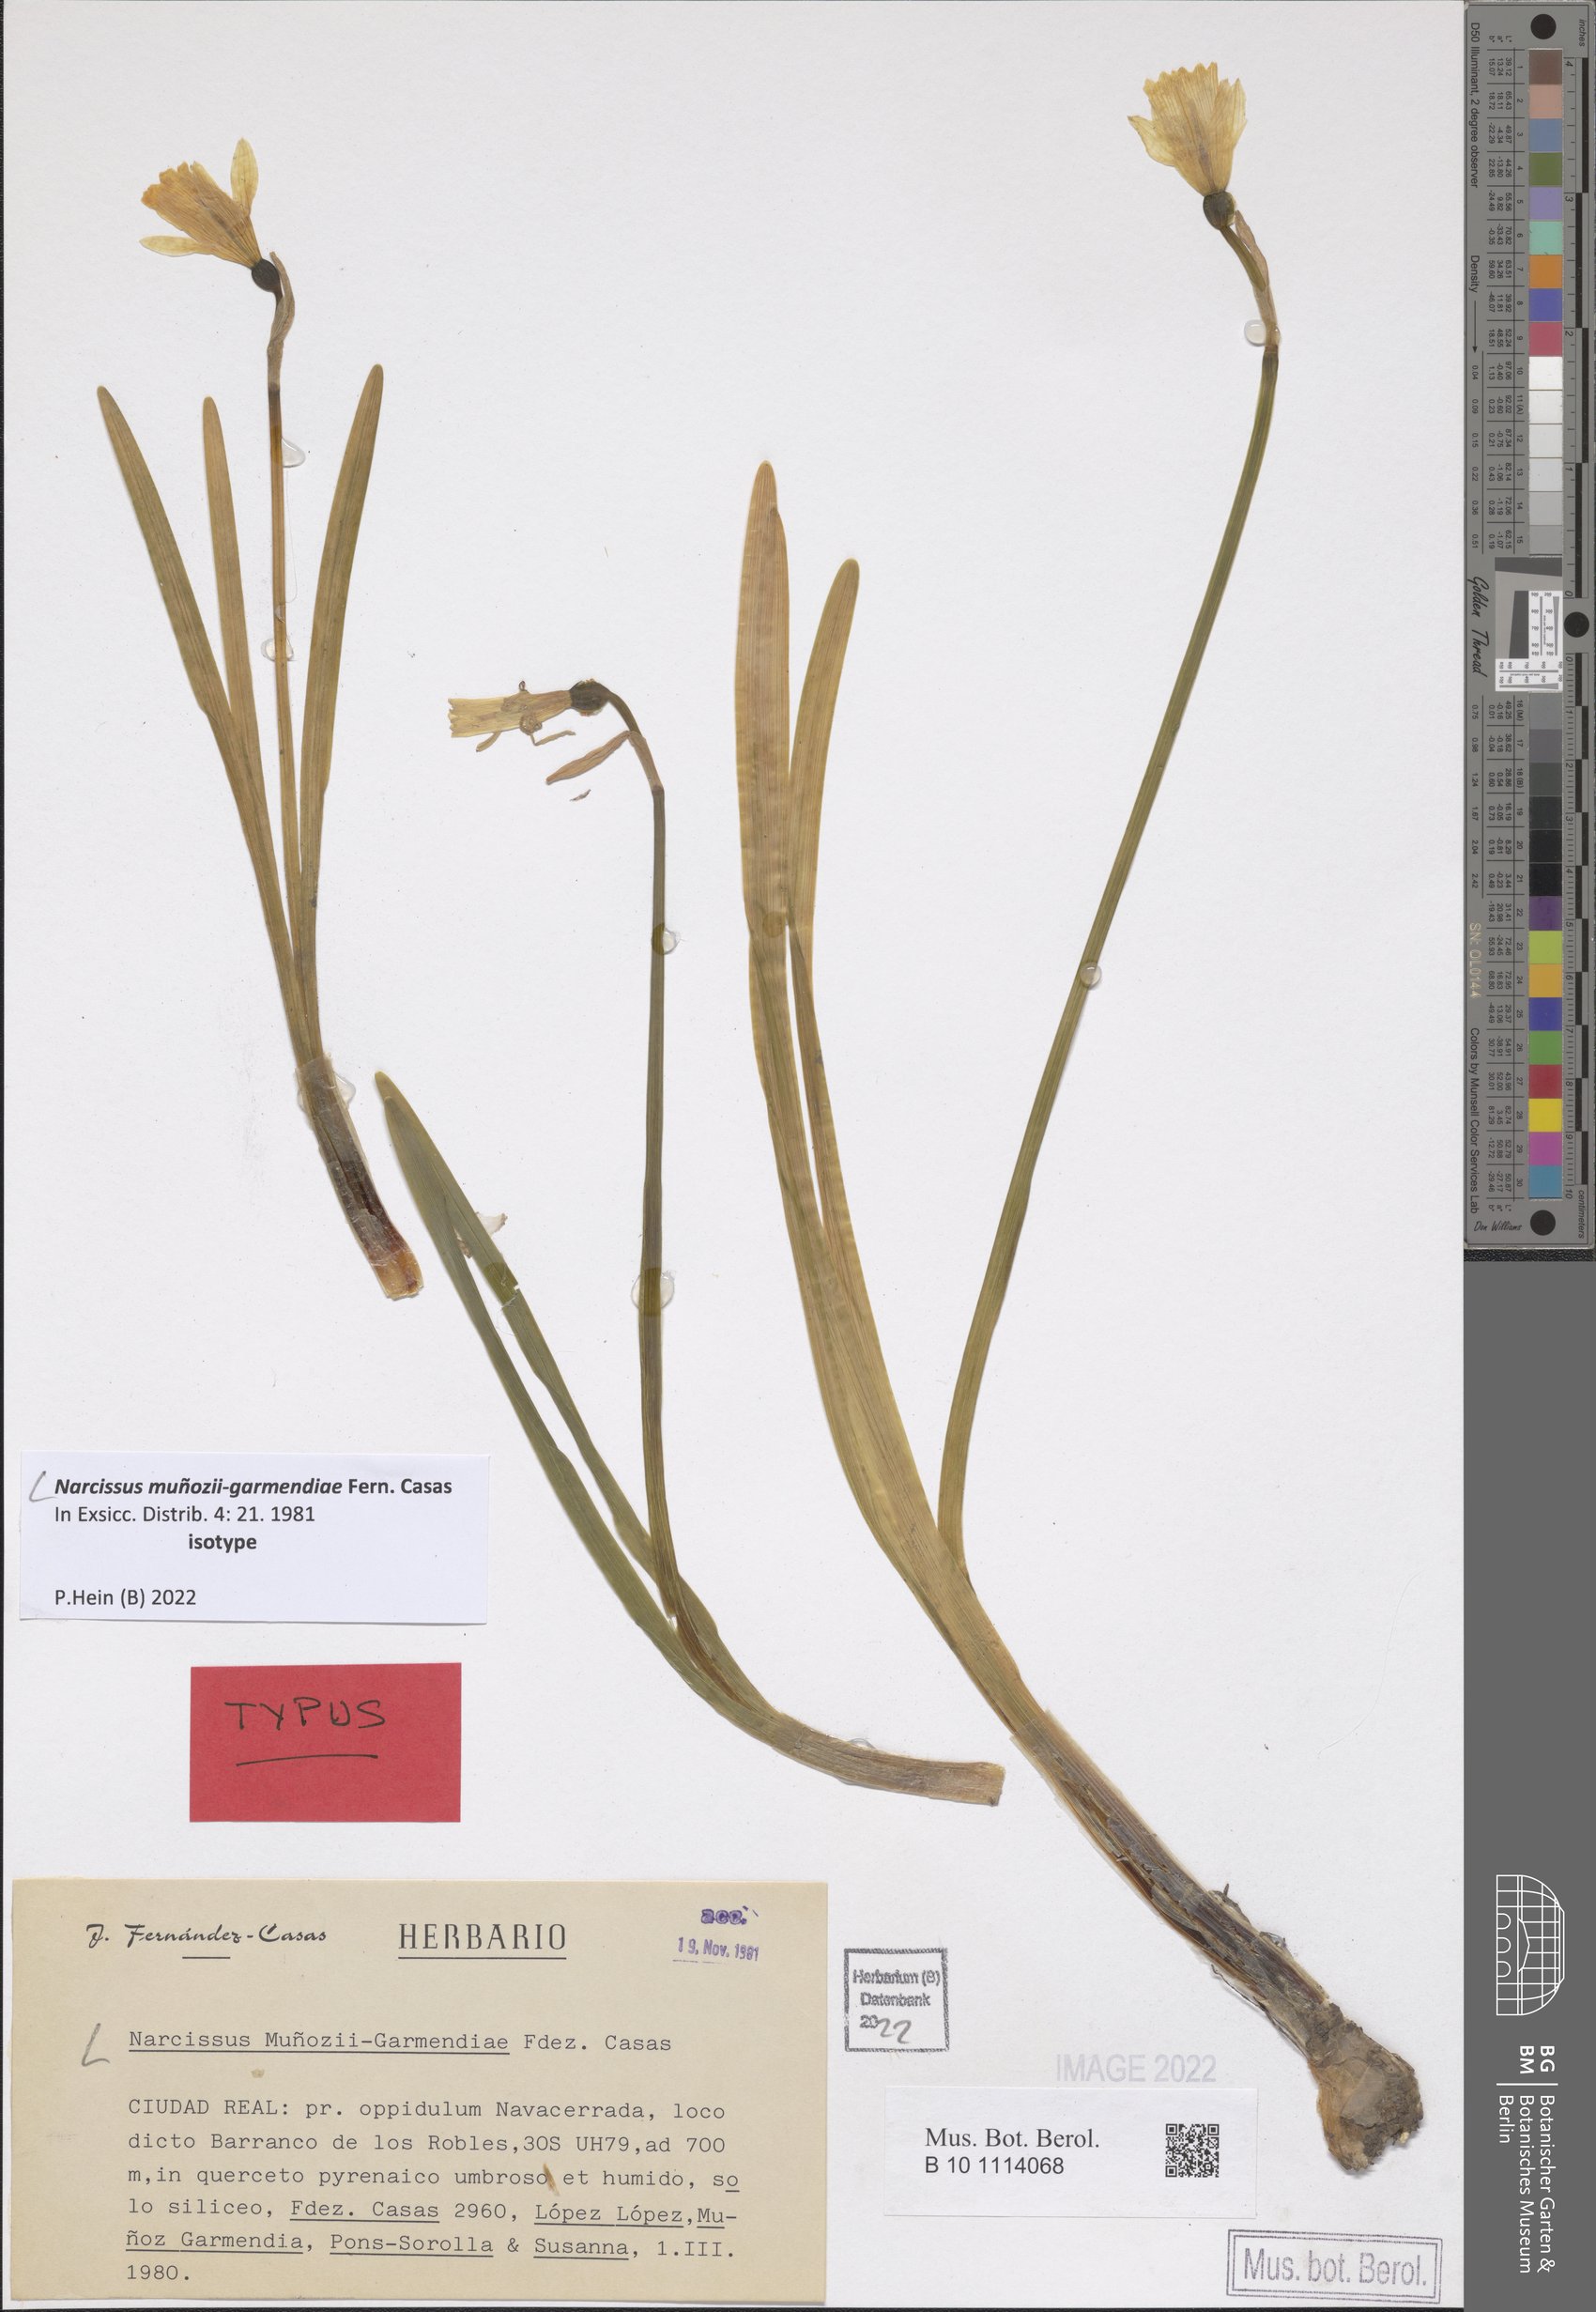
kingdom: Plantae
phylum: Tracheophyta
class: Liliopsida
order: Asparagales
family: Amaryllidaceae
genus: Narcissus
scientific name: Narcissus munozii-garmendiae
